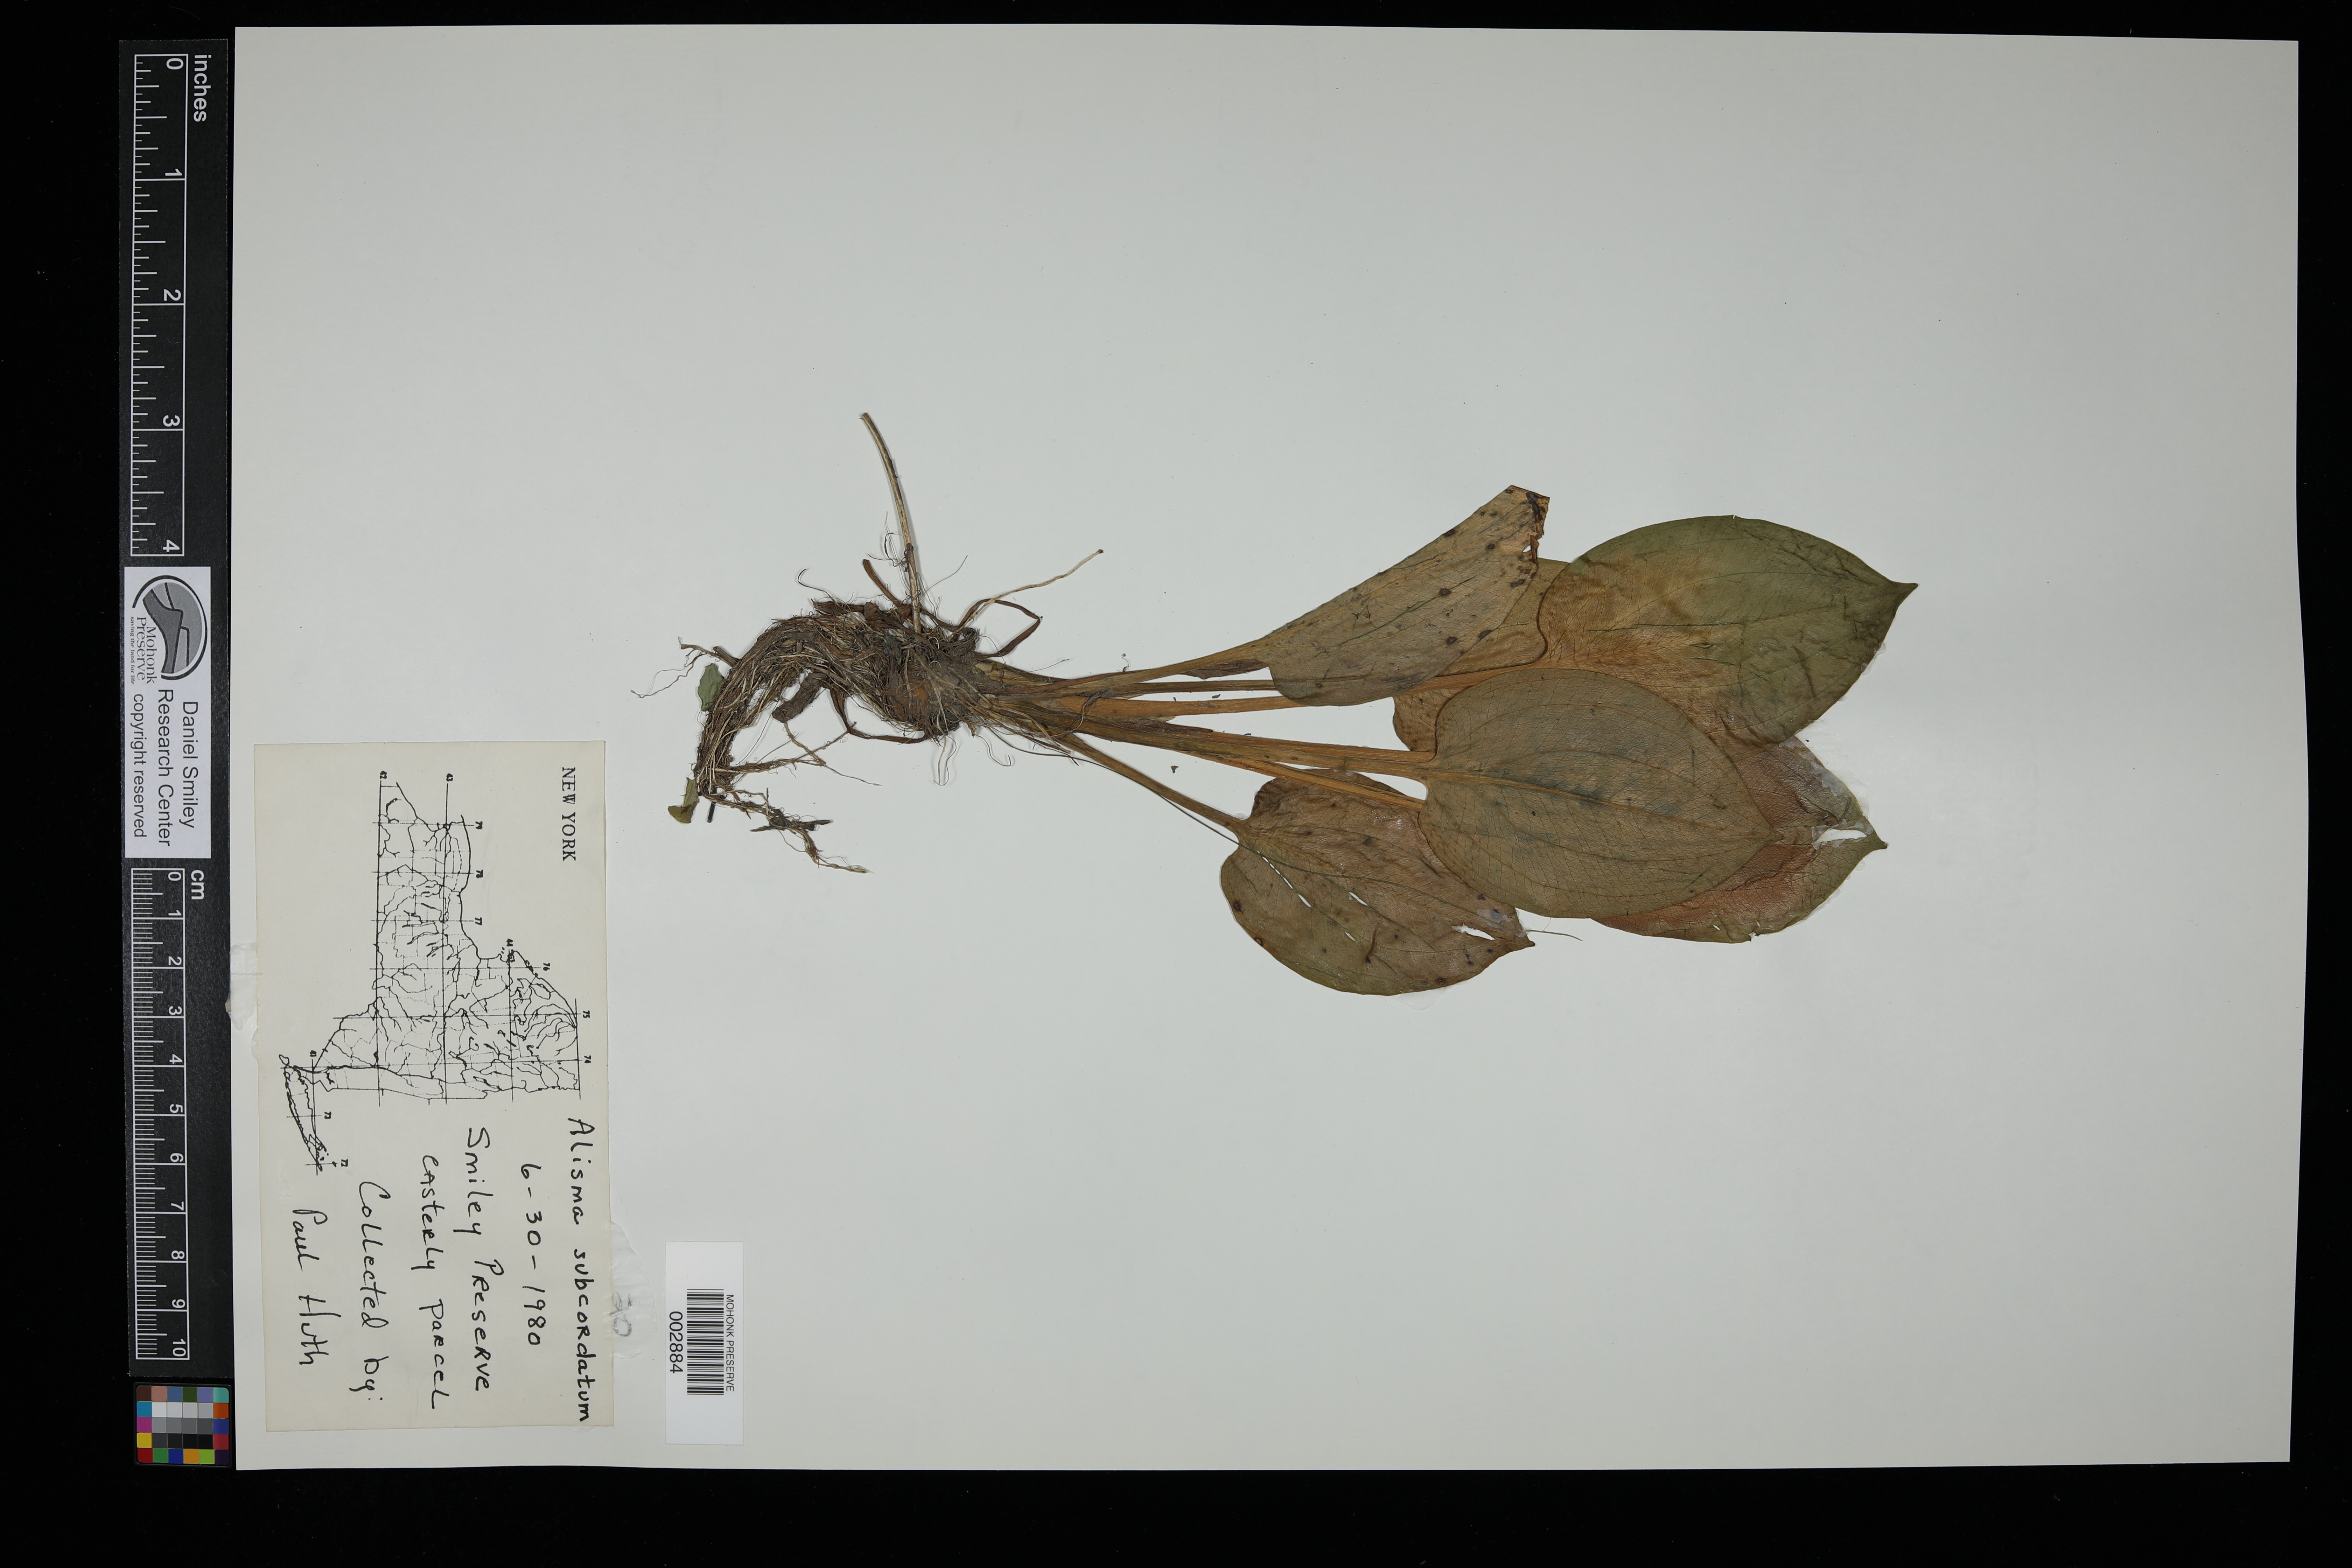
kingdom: Plantae
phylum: Tracheophyta
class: Liliopsida
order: Alismatales
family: Alismataceae
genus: Alisma
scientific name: Alisma subcordatum
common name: Southern water-plantain
